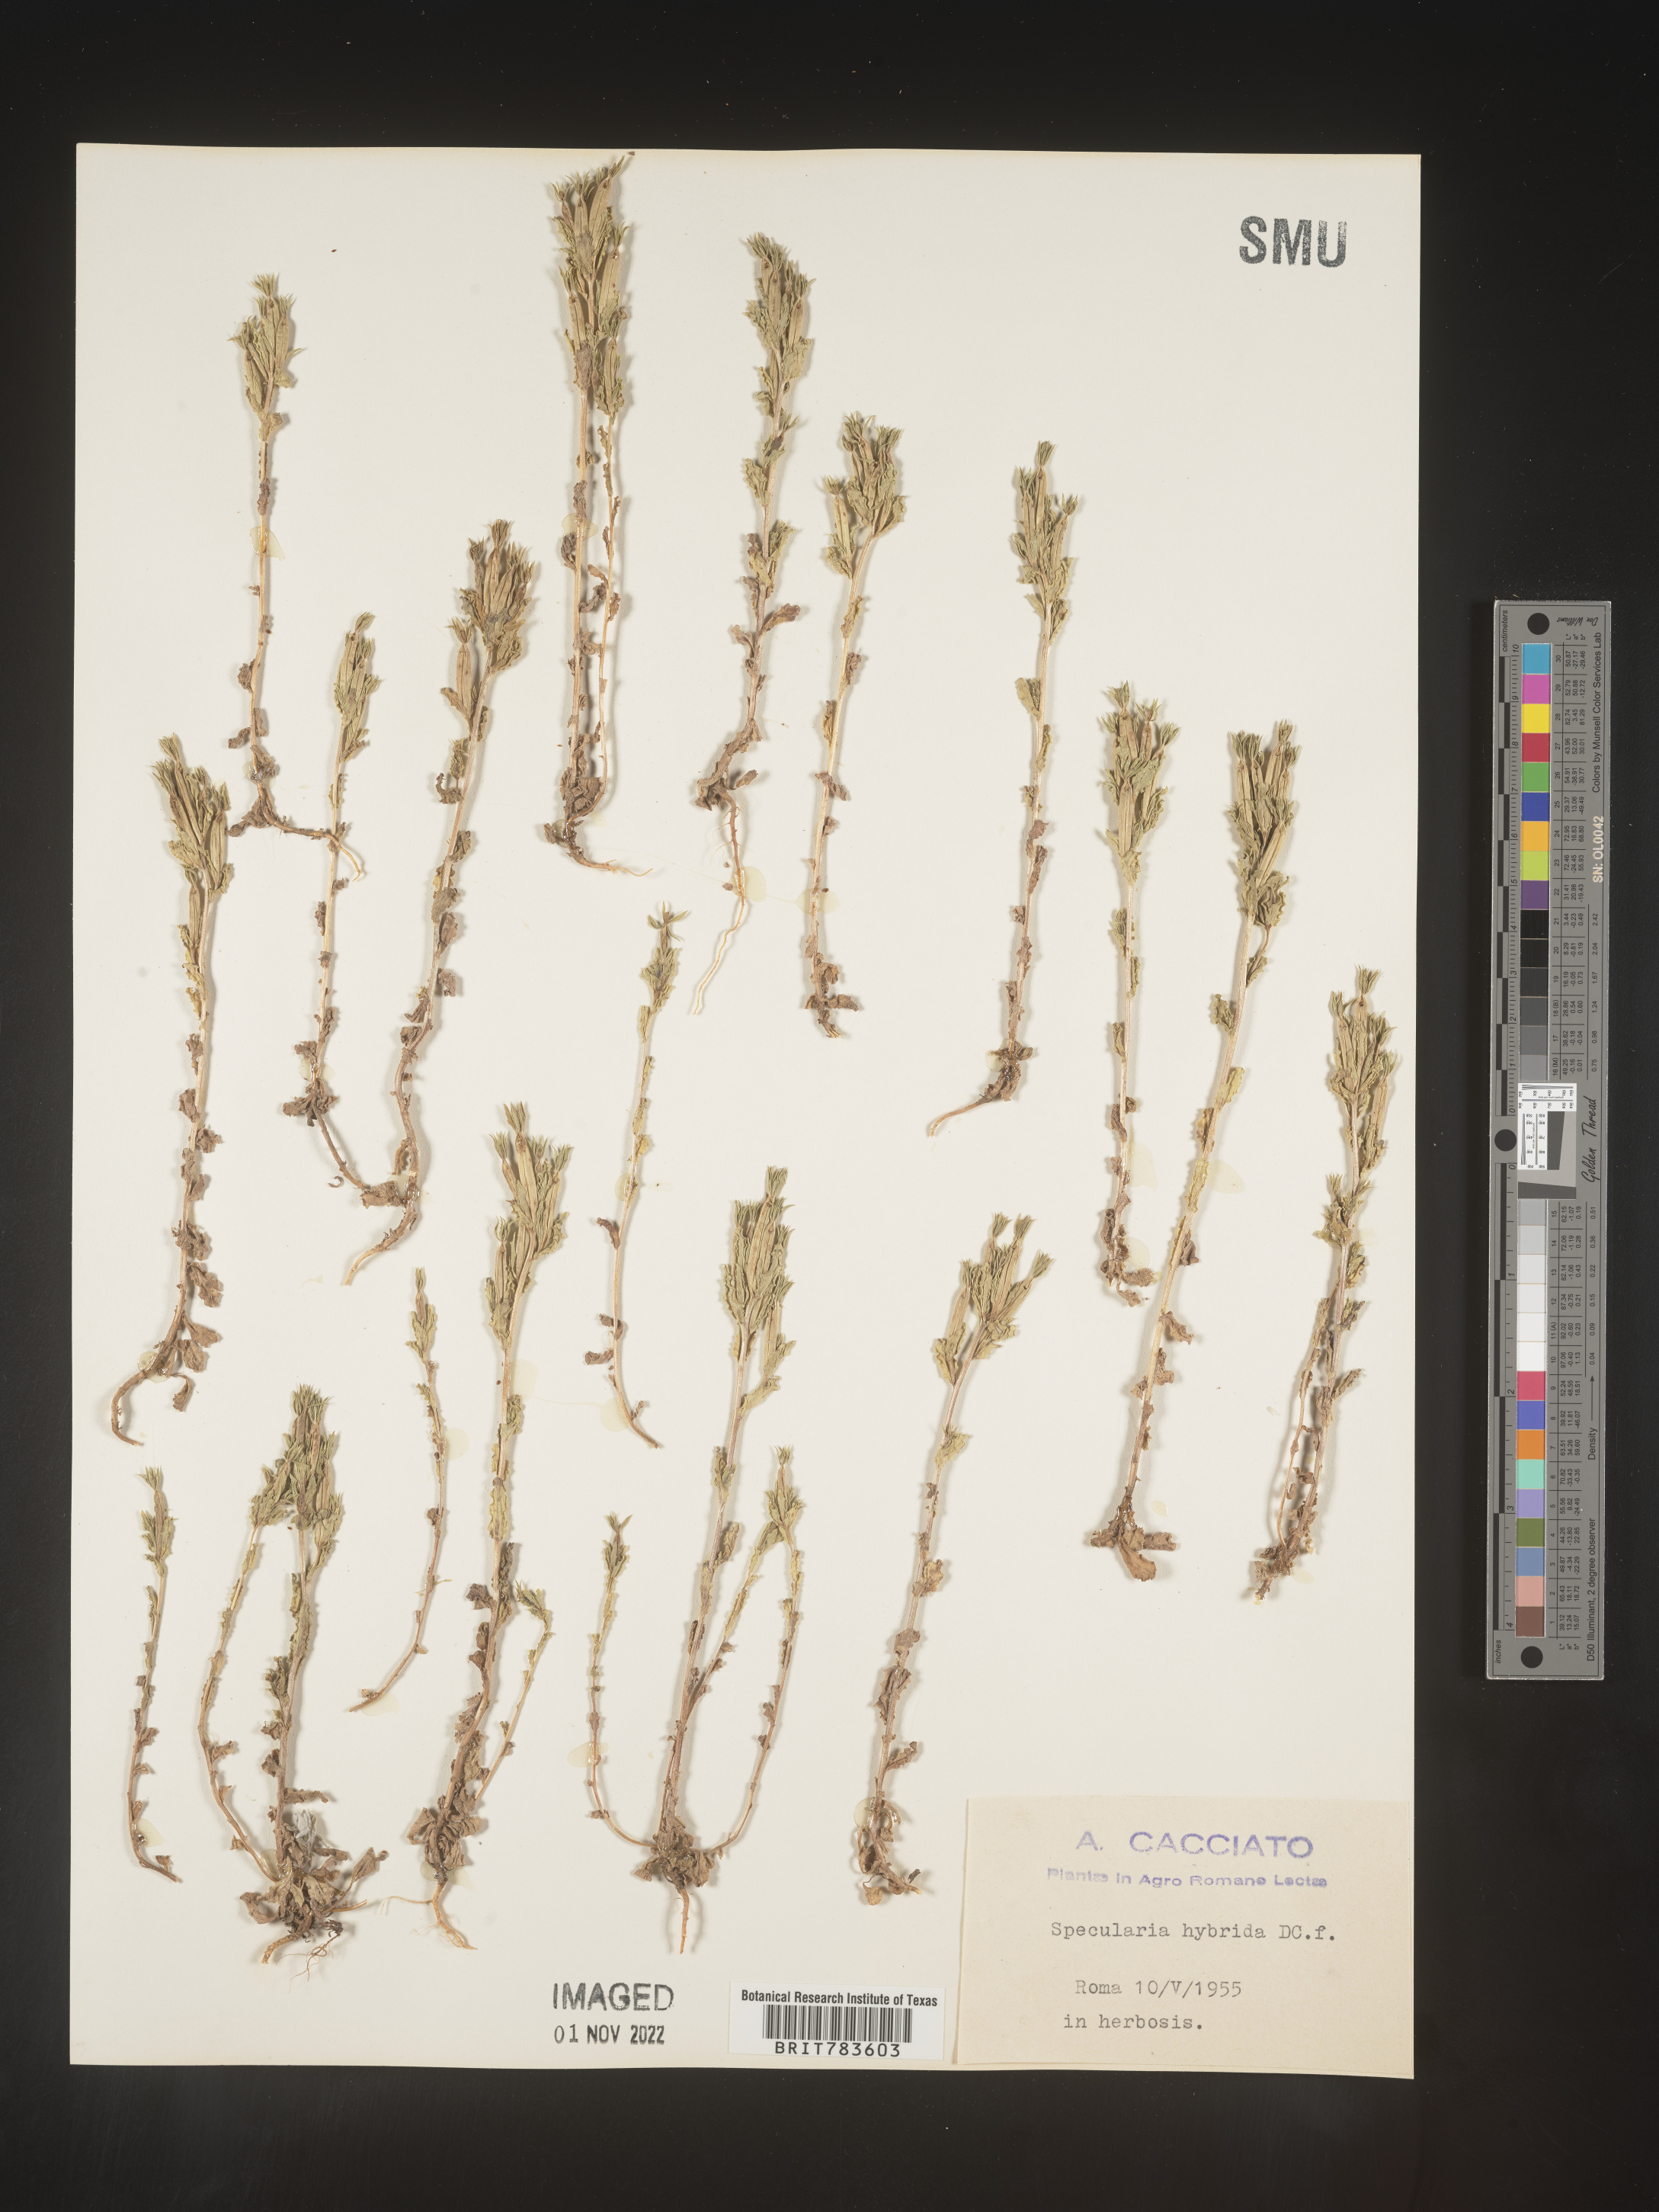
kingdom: Plantae
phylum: Tracheophyta
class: Magnoliopsida
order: Asterales
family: Campanulaceae
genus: Specularia
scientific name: Specularia
